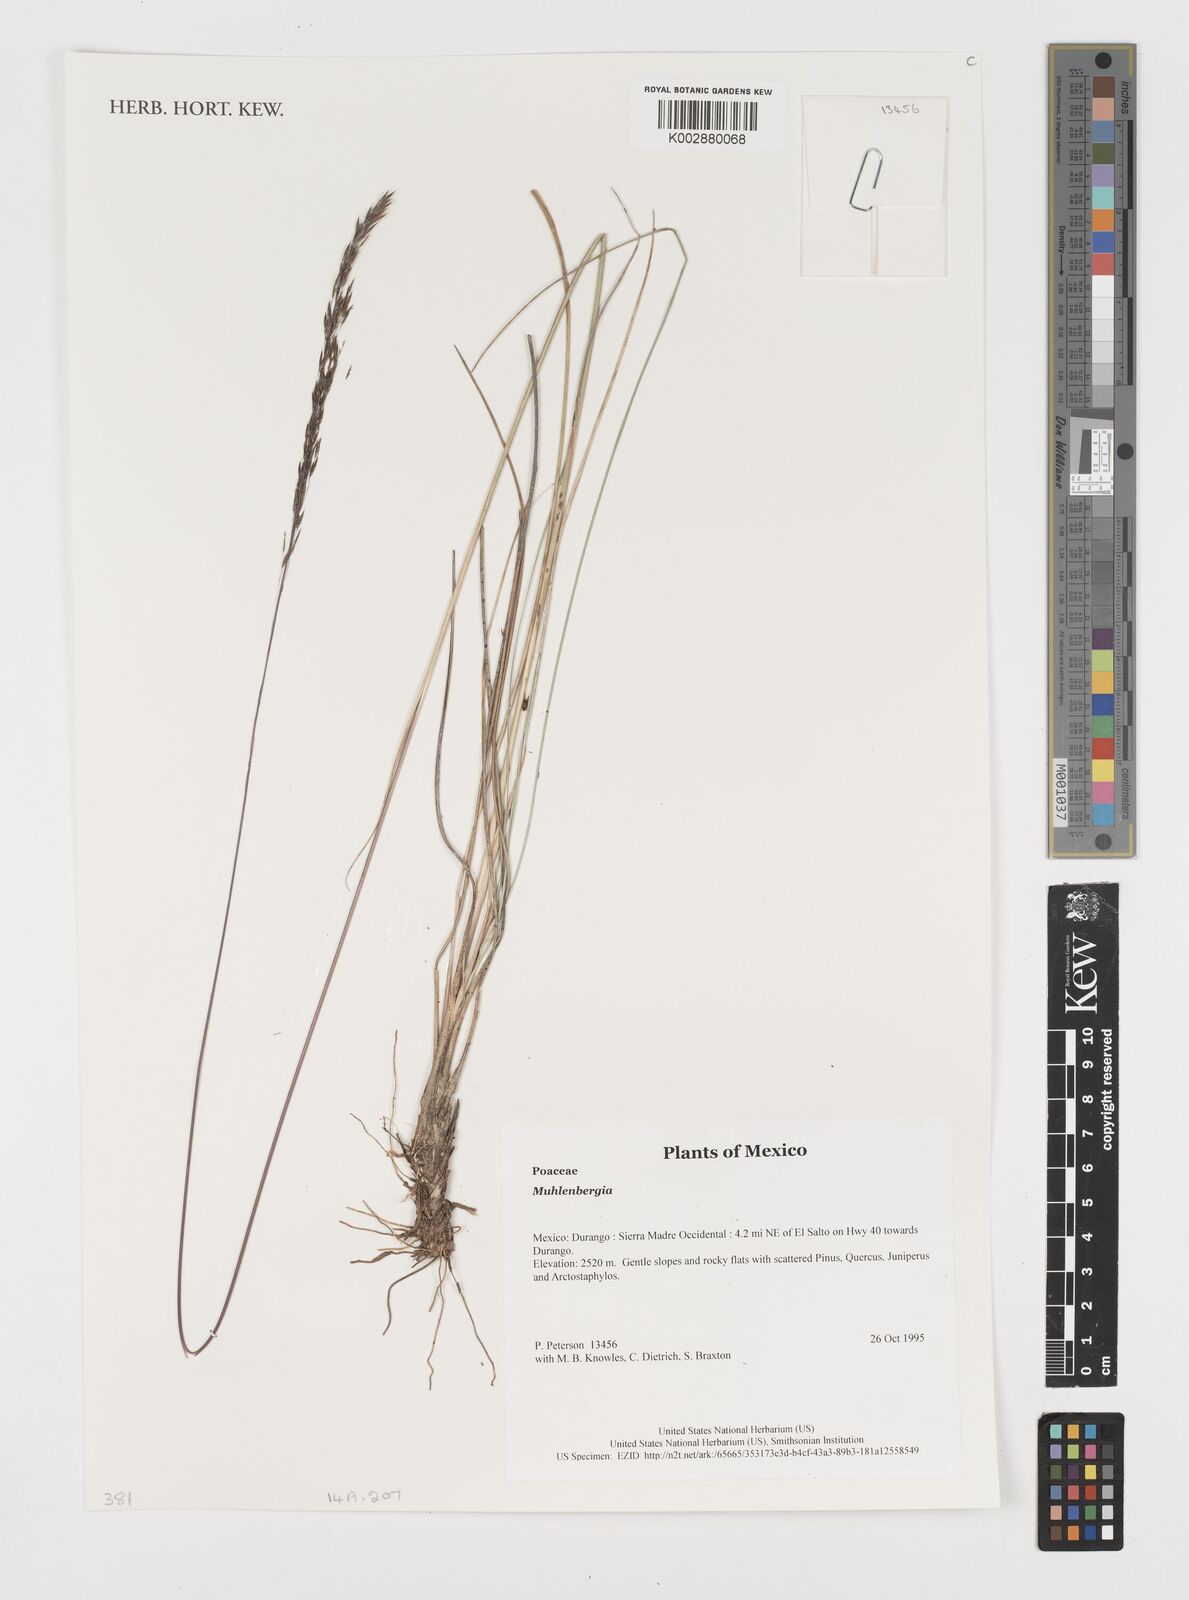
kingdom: Plantae
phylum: Tracheophyta
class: Liliopsida
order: Poales
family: Poaceae
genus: Muhlenbergia
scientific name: Muhlenbergia
